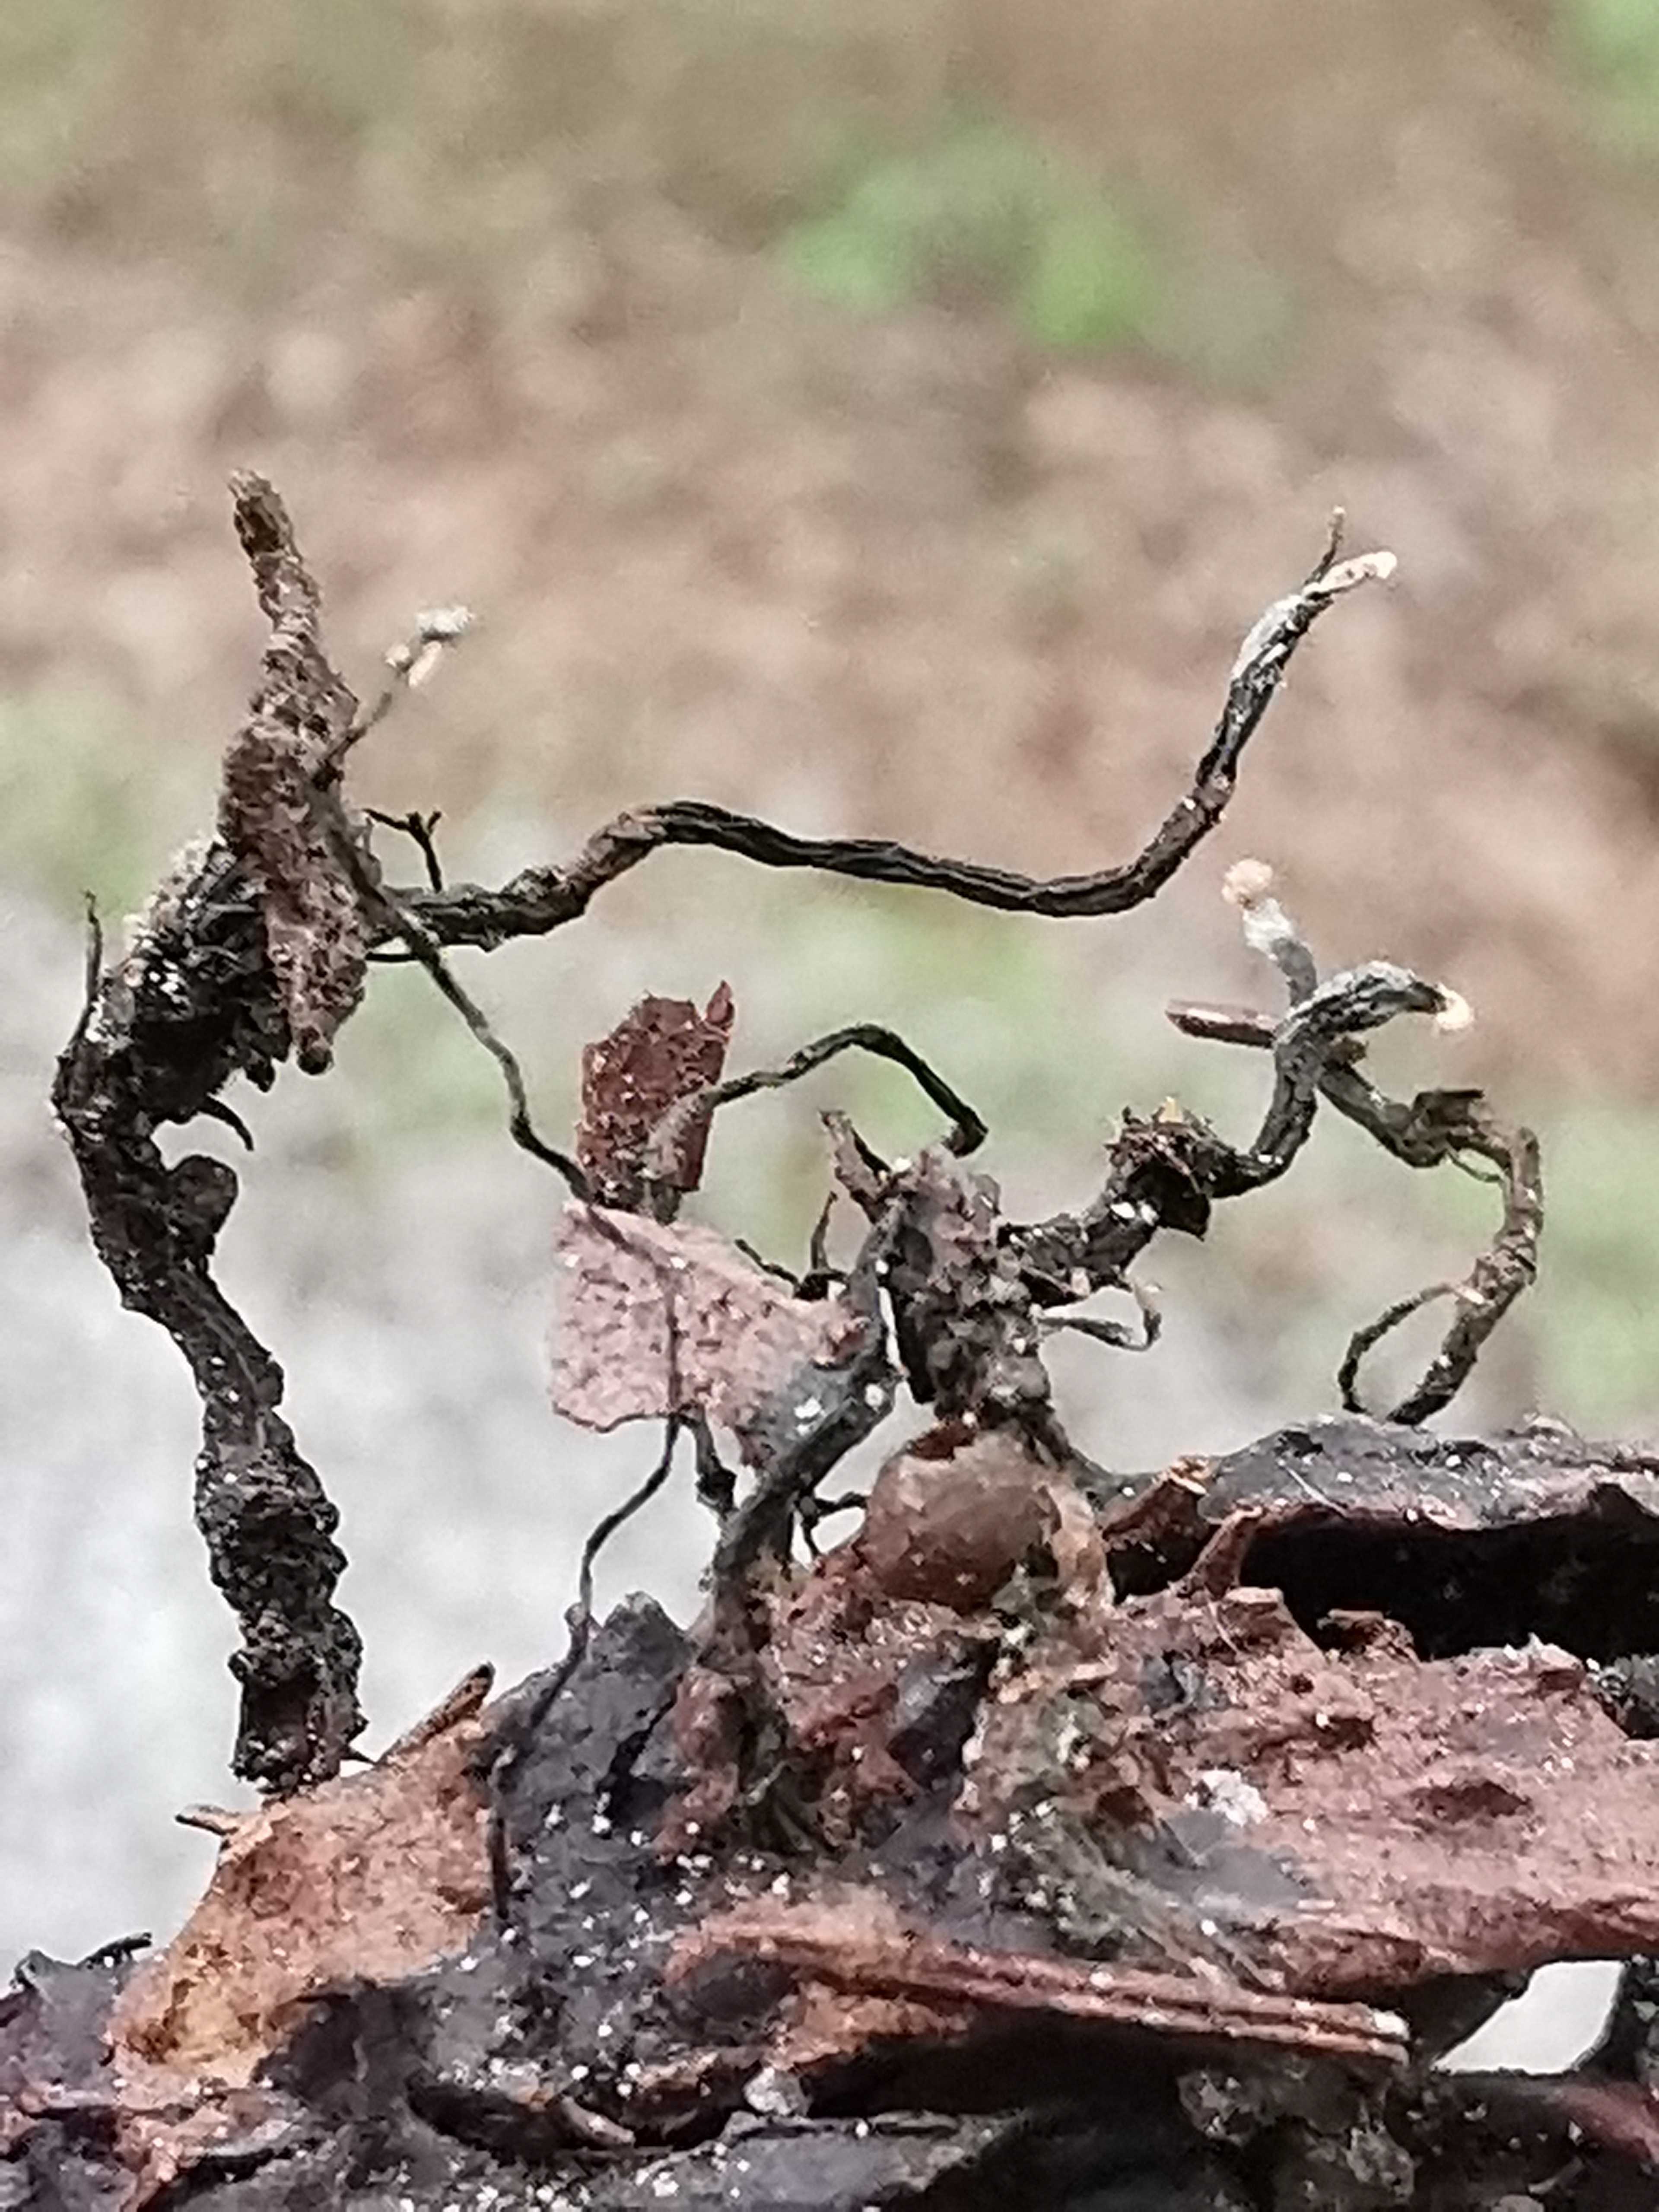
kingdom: Fungi
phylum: Ascomycota
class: Sordariomycetes
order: Xylariales
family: Xylariaceae
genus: Xylaria
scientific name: Xylaria carpophila
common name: bogskål-stødsvamp
